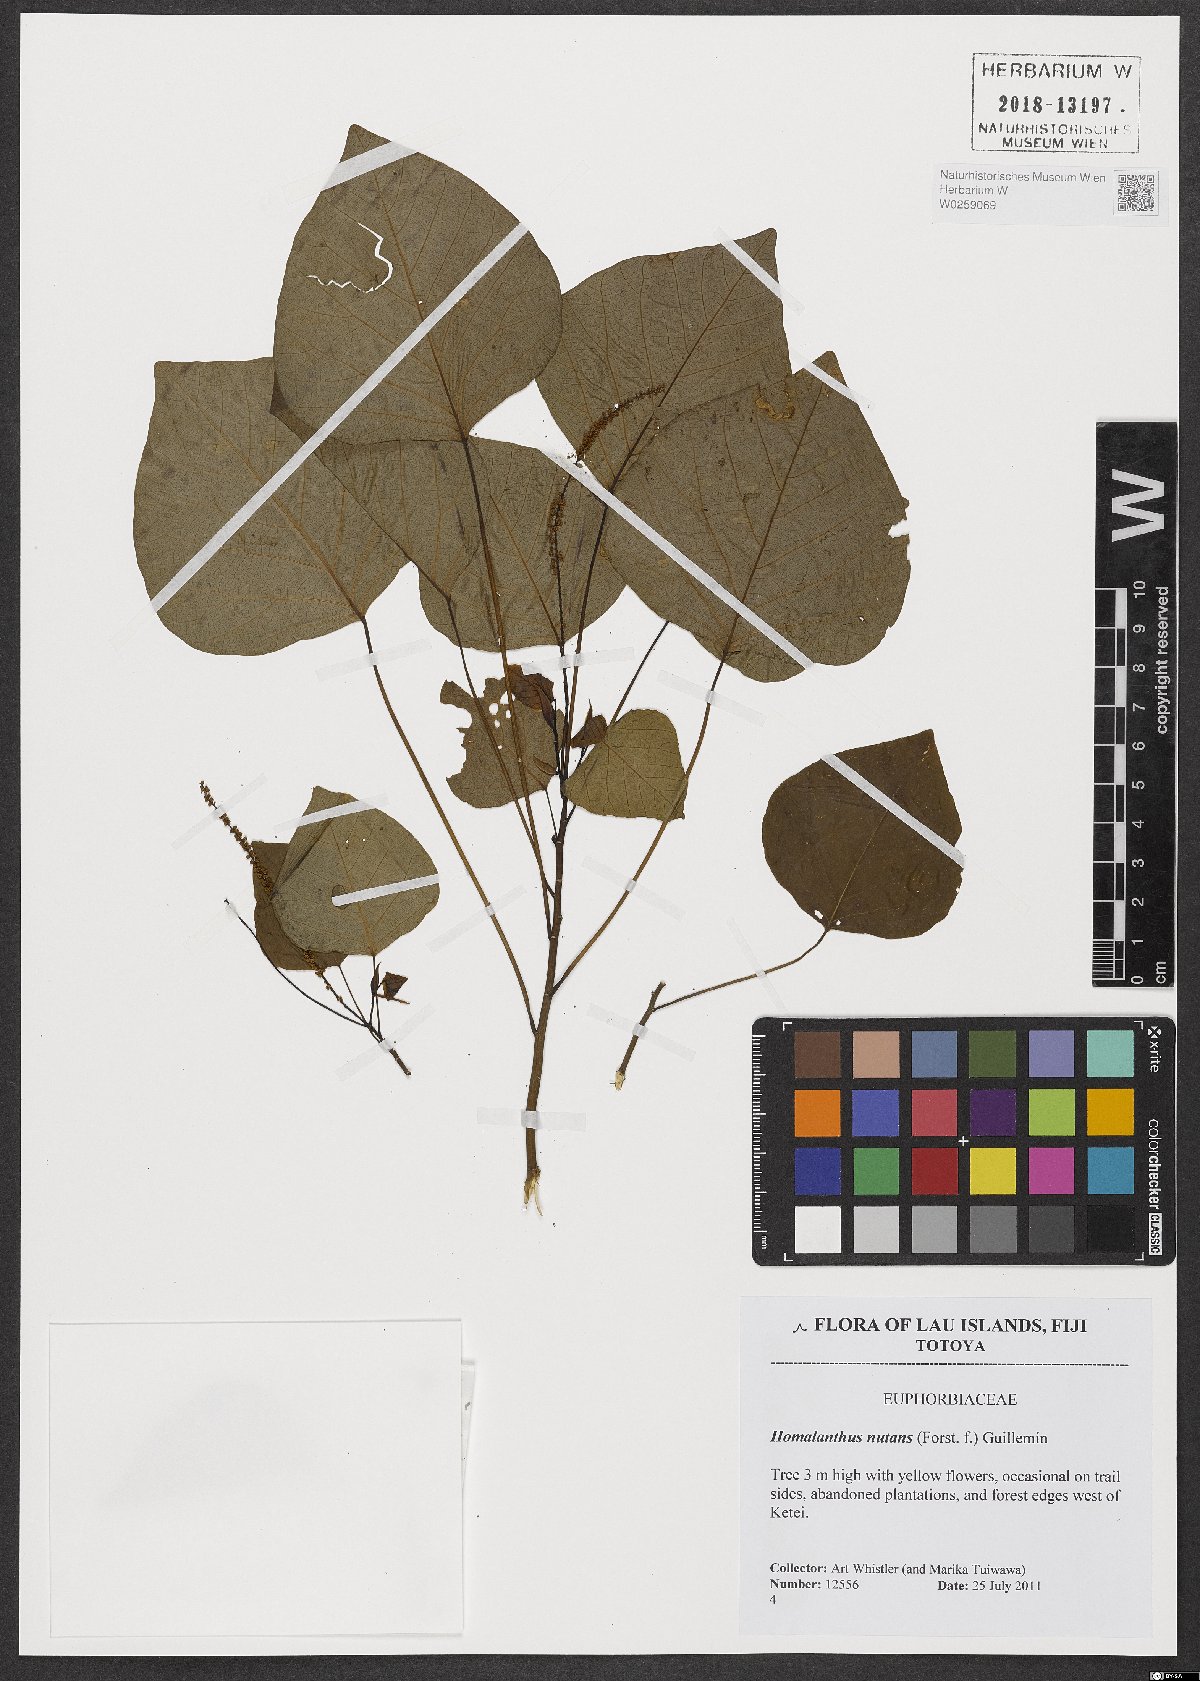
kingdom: Plantae
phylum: Tracheophyta
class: Magnoliopsida
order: Malpighiales
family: Euphorbiaceae
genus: Homalanthus
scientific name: Homalanthus nutans
